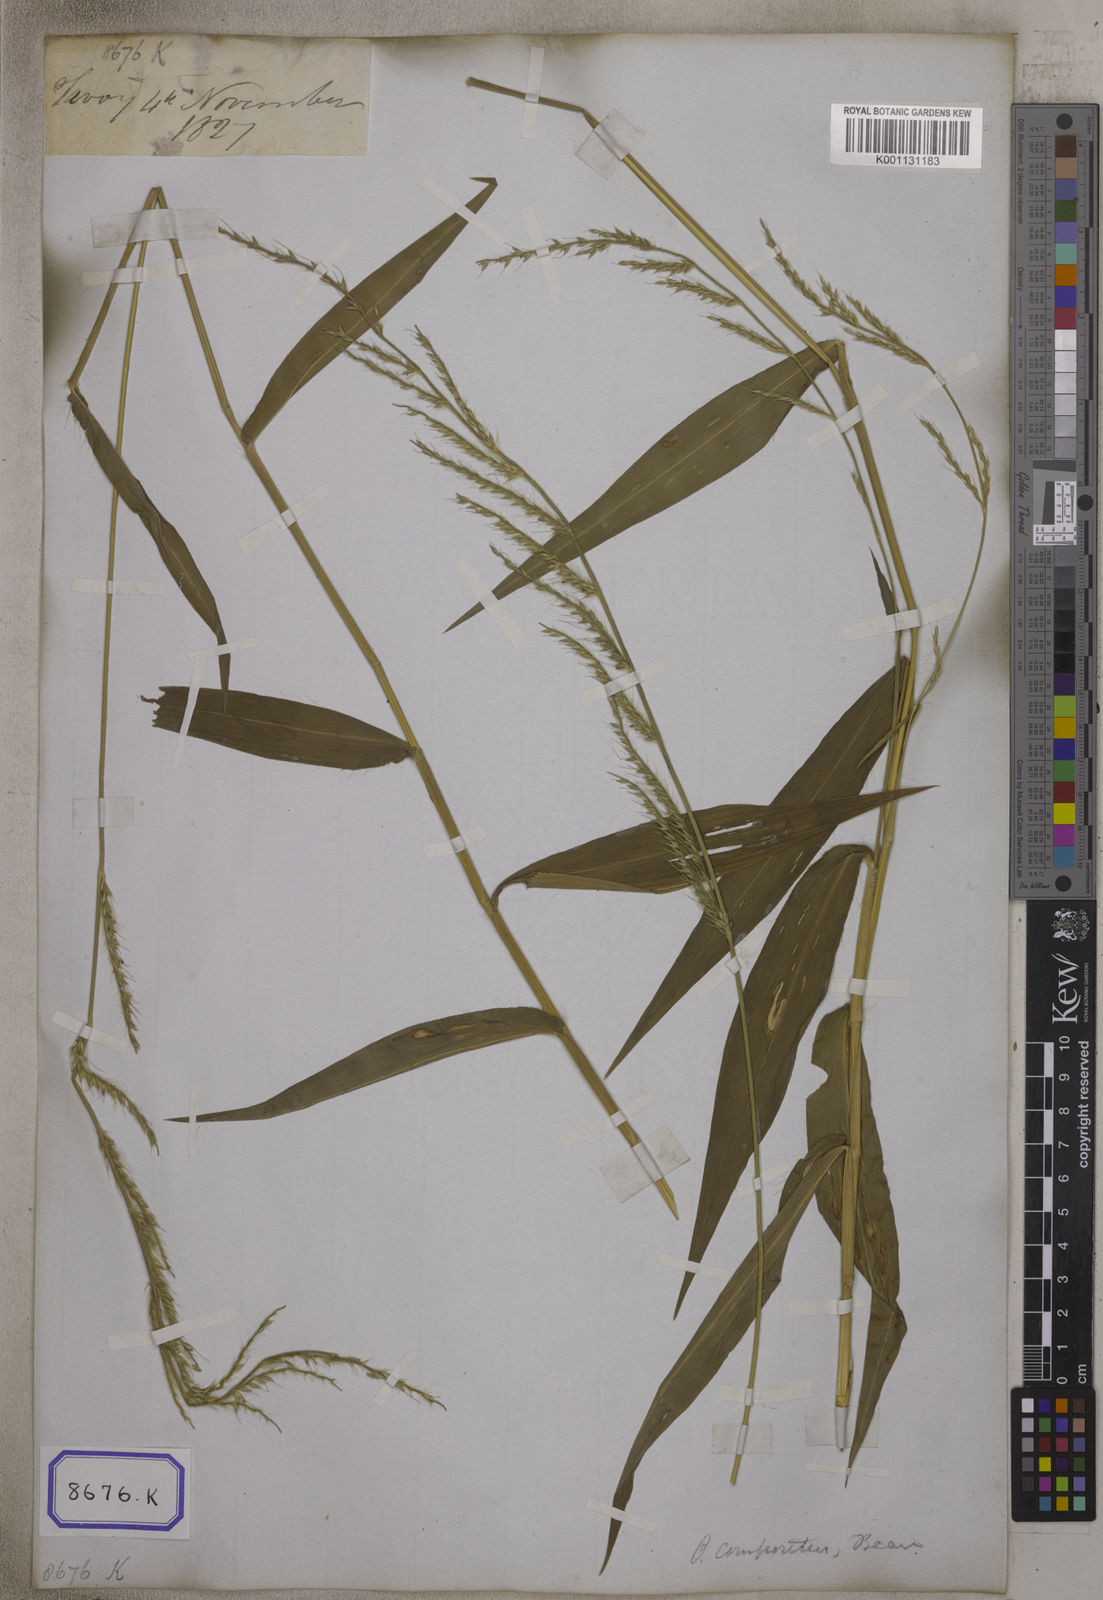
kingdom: Plantae
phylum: Tracheophyta
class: Liliopsida
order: Poales
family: Poaceae
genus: Oplismenus
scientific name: Oplismenus compositus
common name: Running mountain grass
